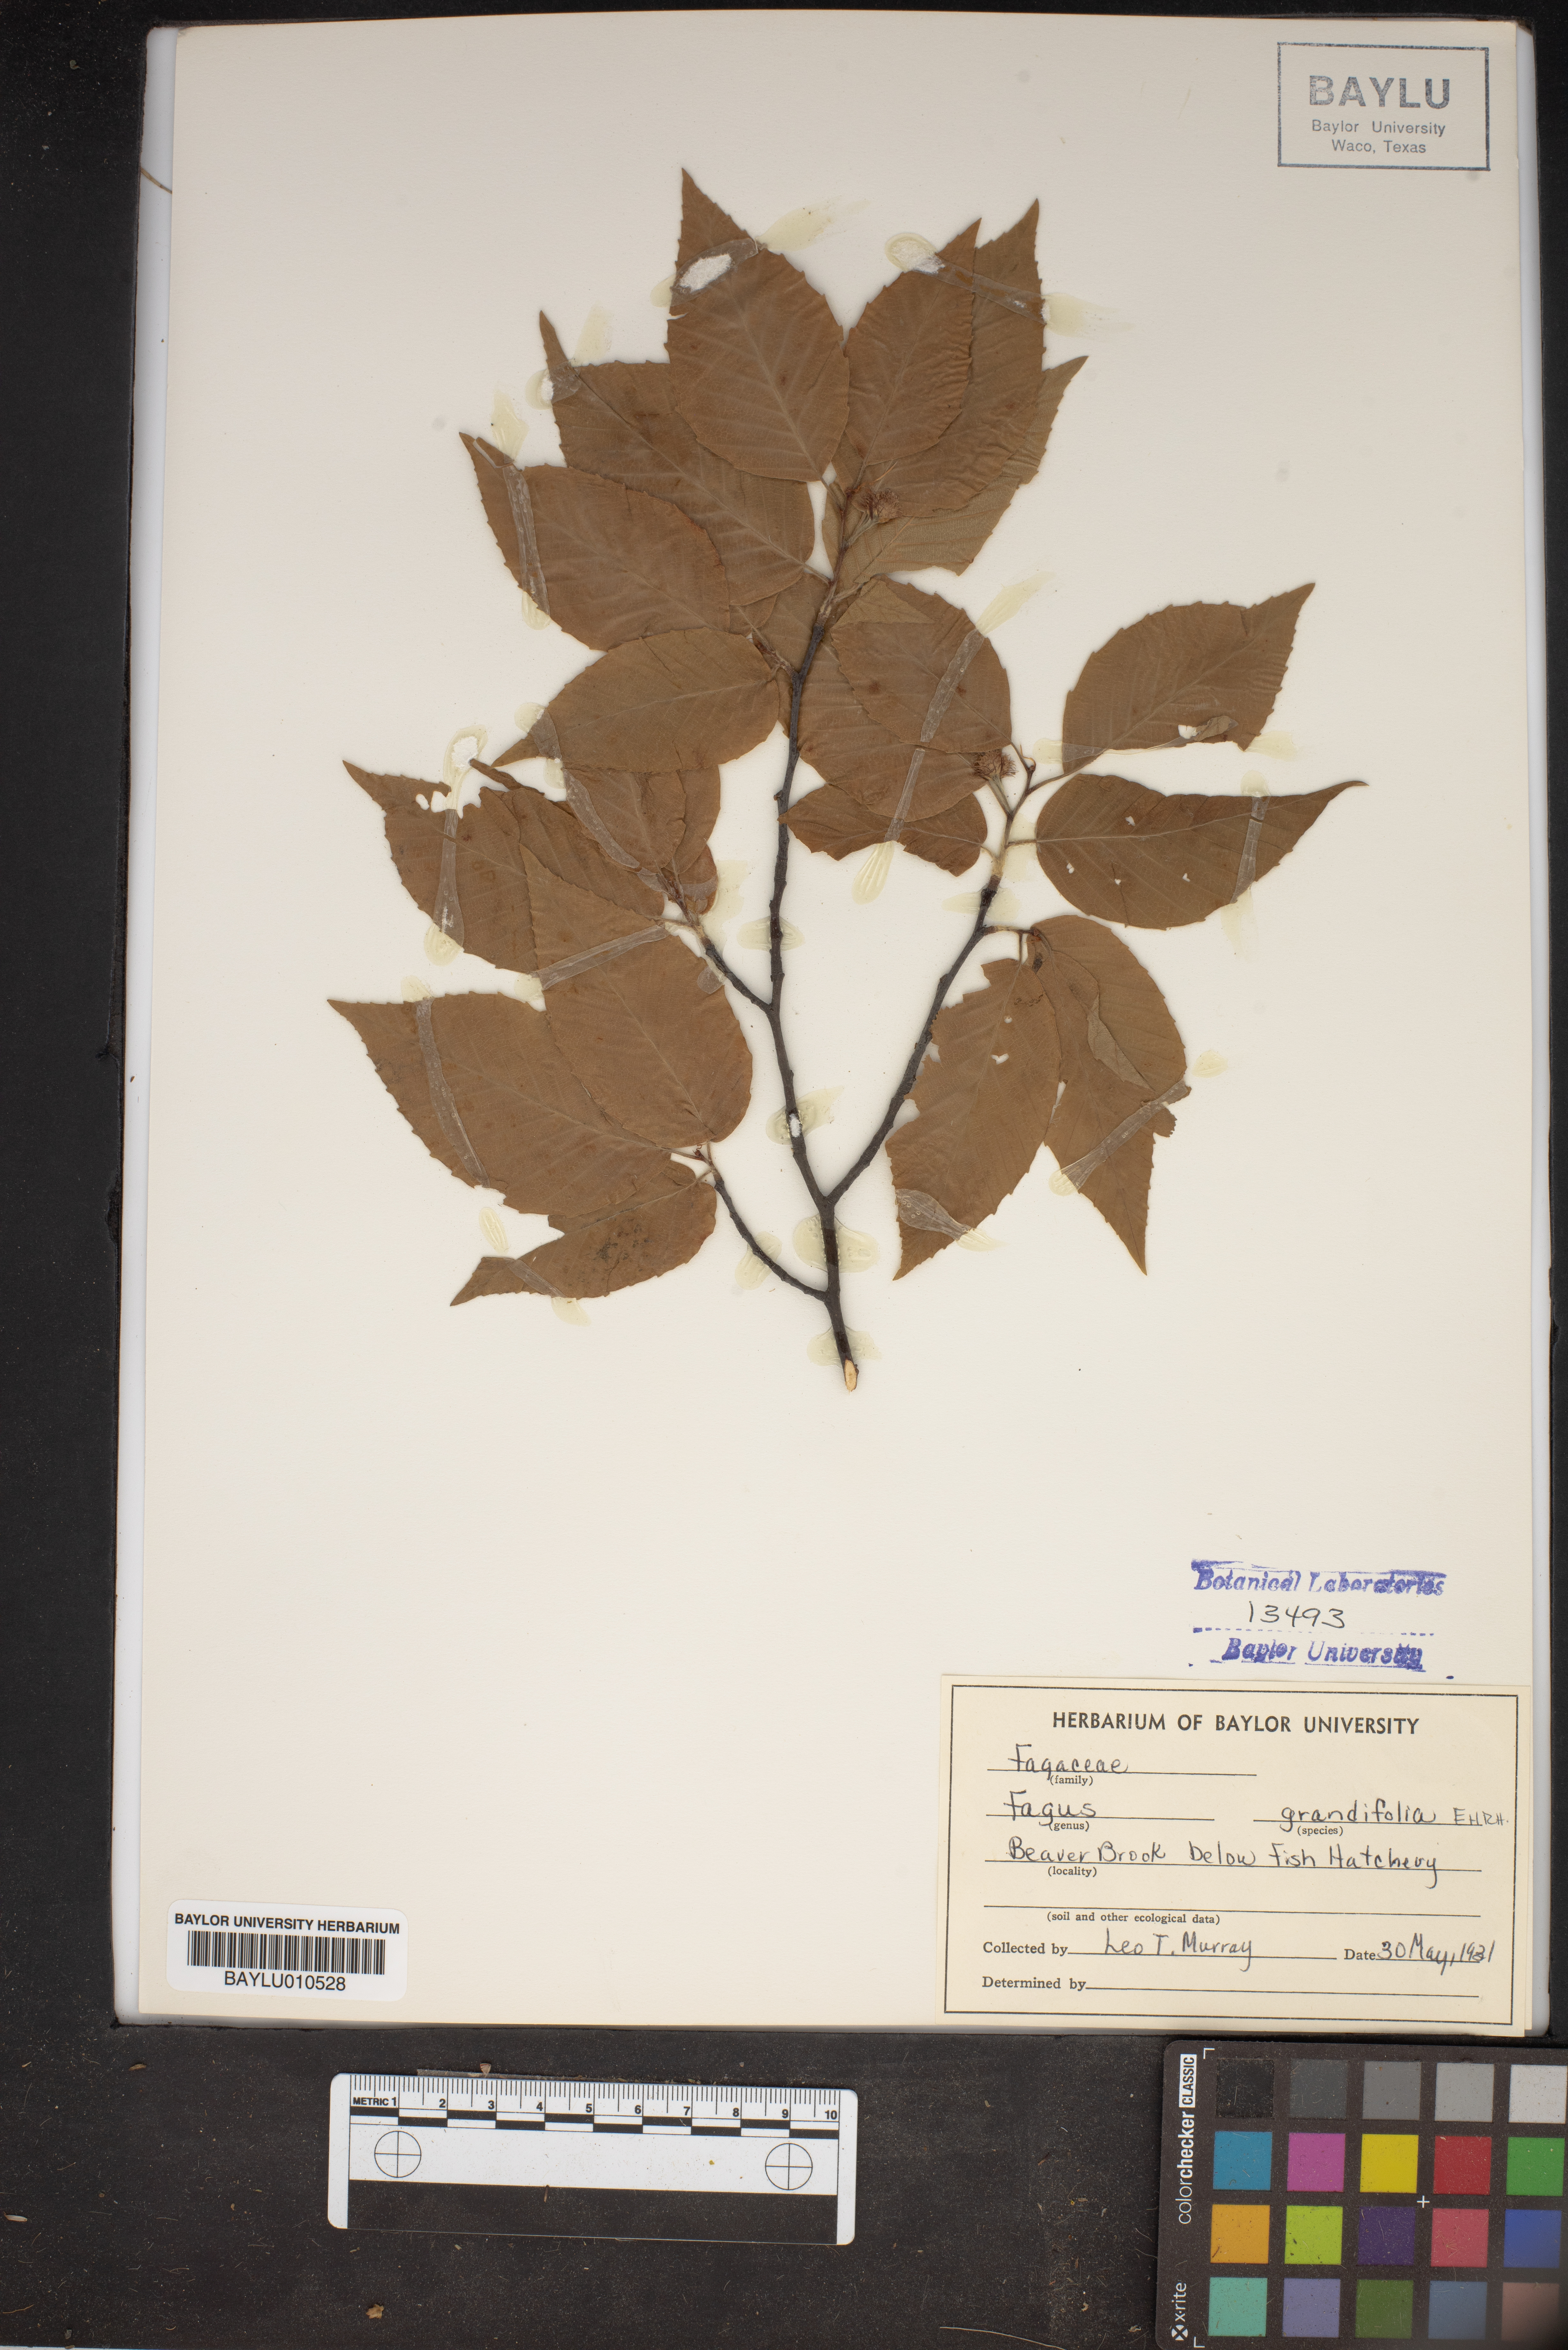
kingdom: Plantae
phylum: Tracheophyta
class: Magnoliopsida
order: Fagales
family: Fagaceae
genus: Fagus
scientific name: Fagus grandifolia
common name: American beech
